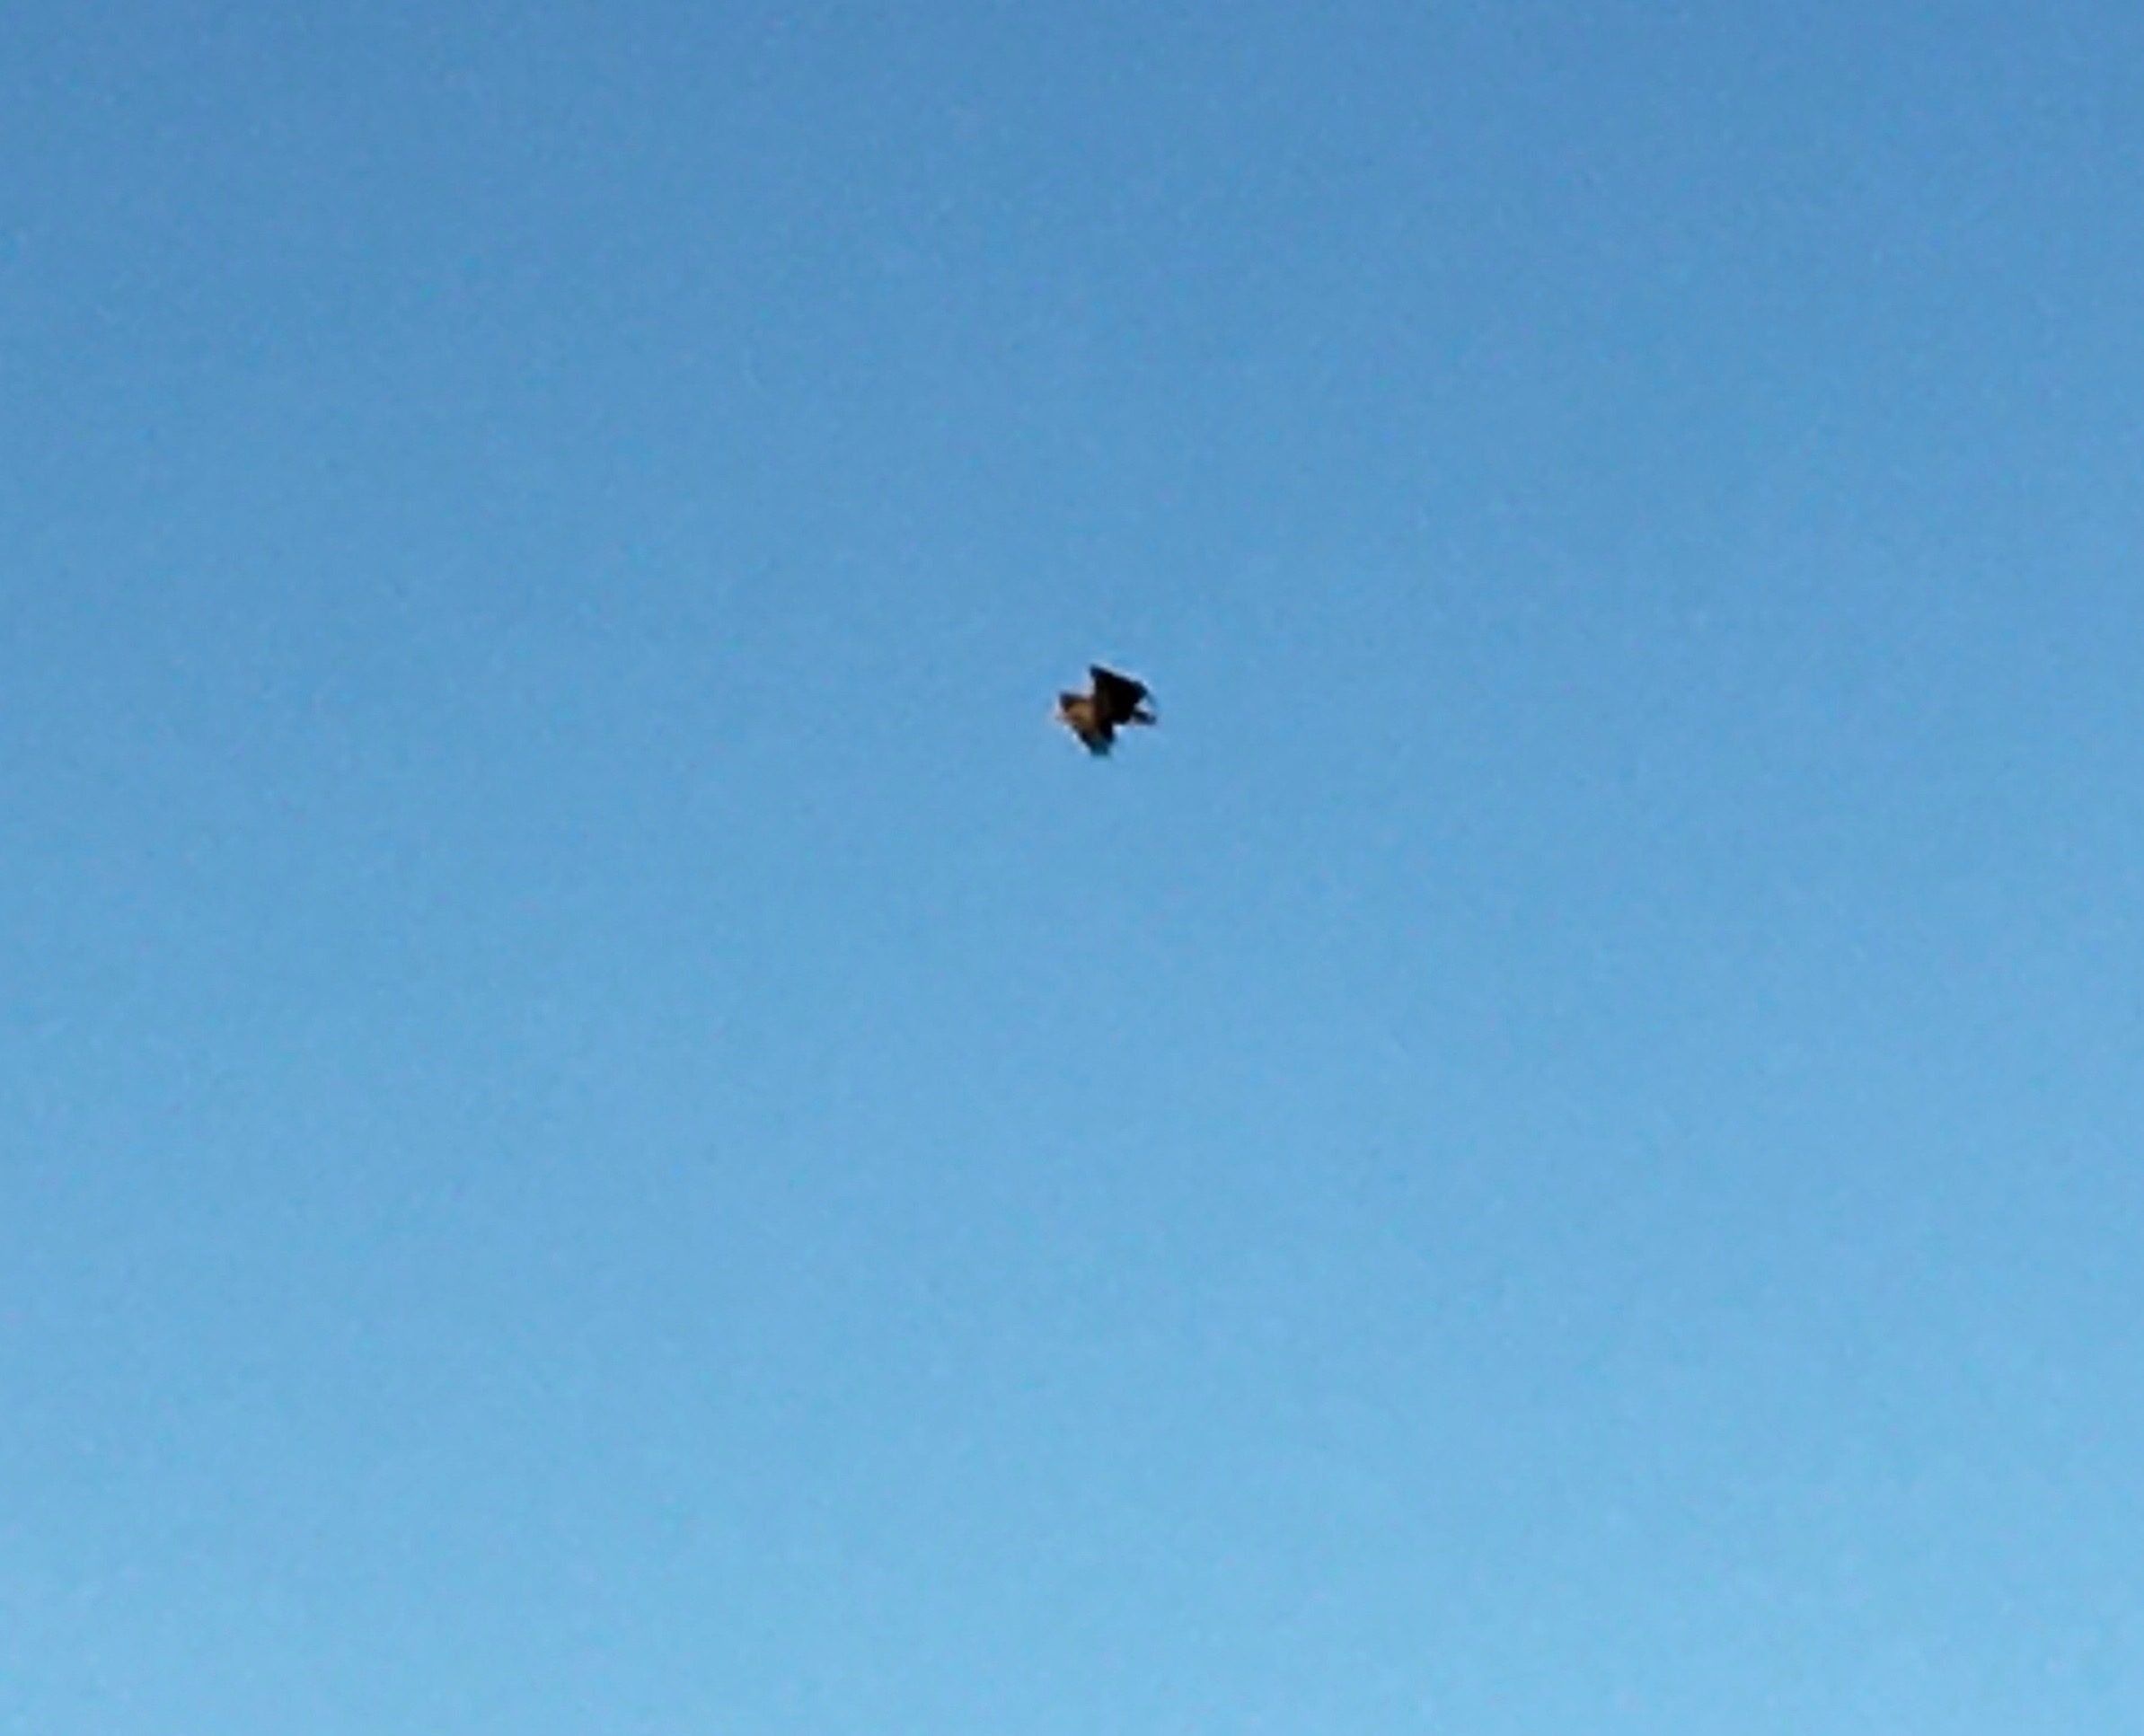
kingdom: Animalia
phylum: Chordata
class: Aves
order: Accipitriformes
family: Accipitridae
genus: Haliaeetus
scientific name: Haliaeetus albicilla
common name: Havørn
